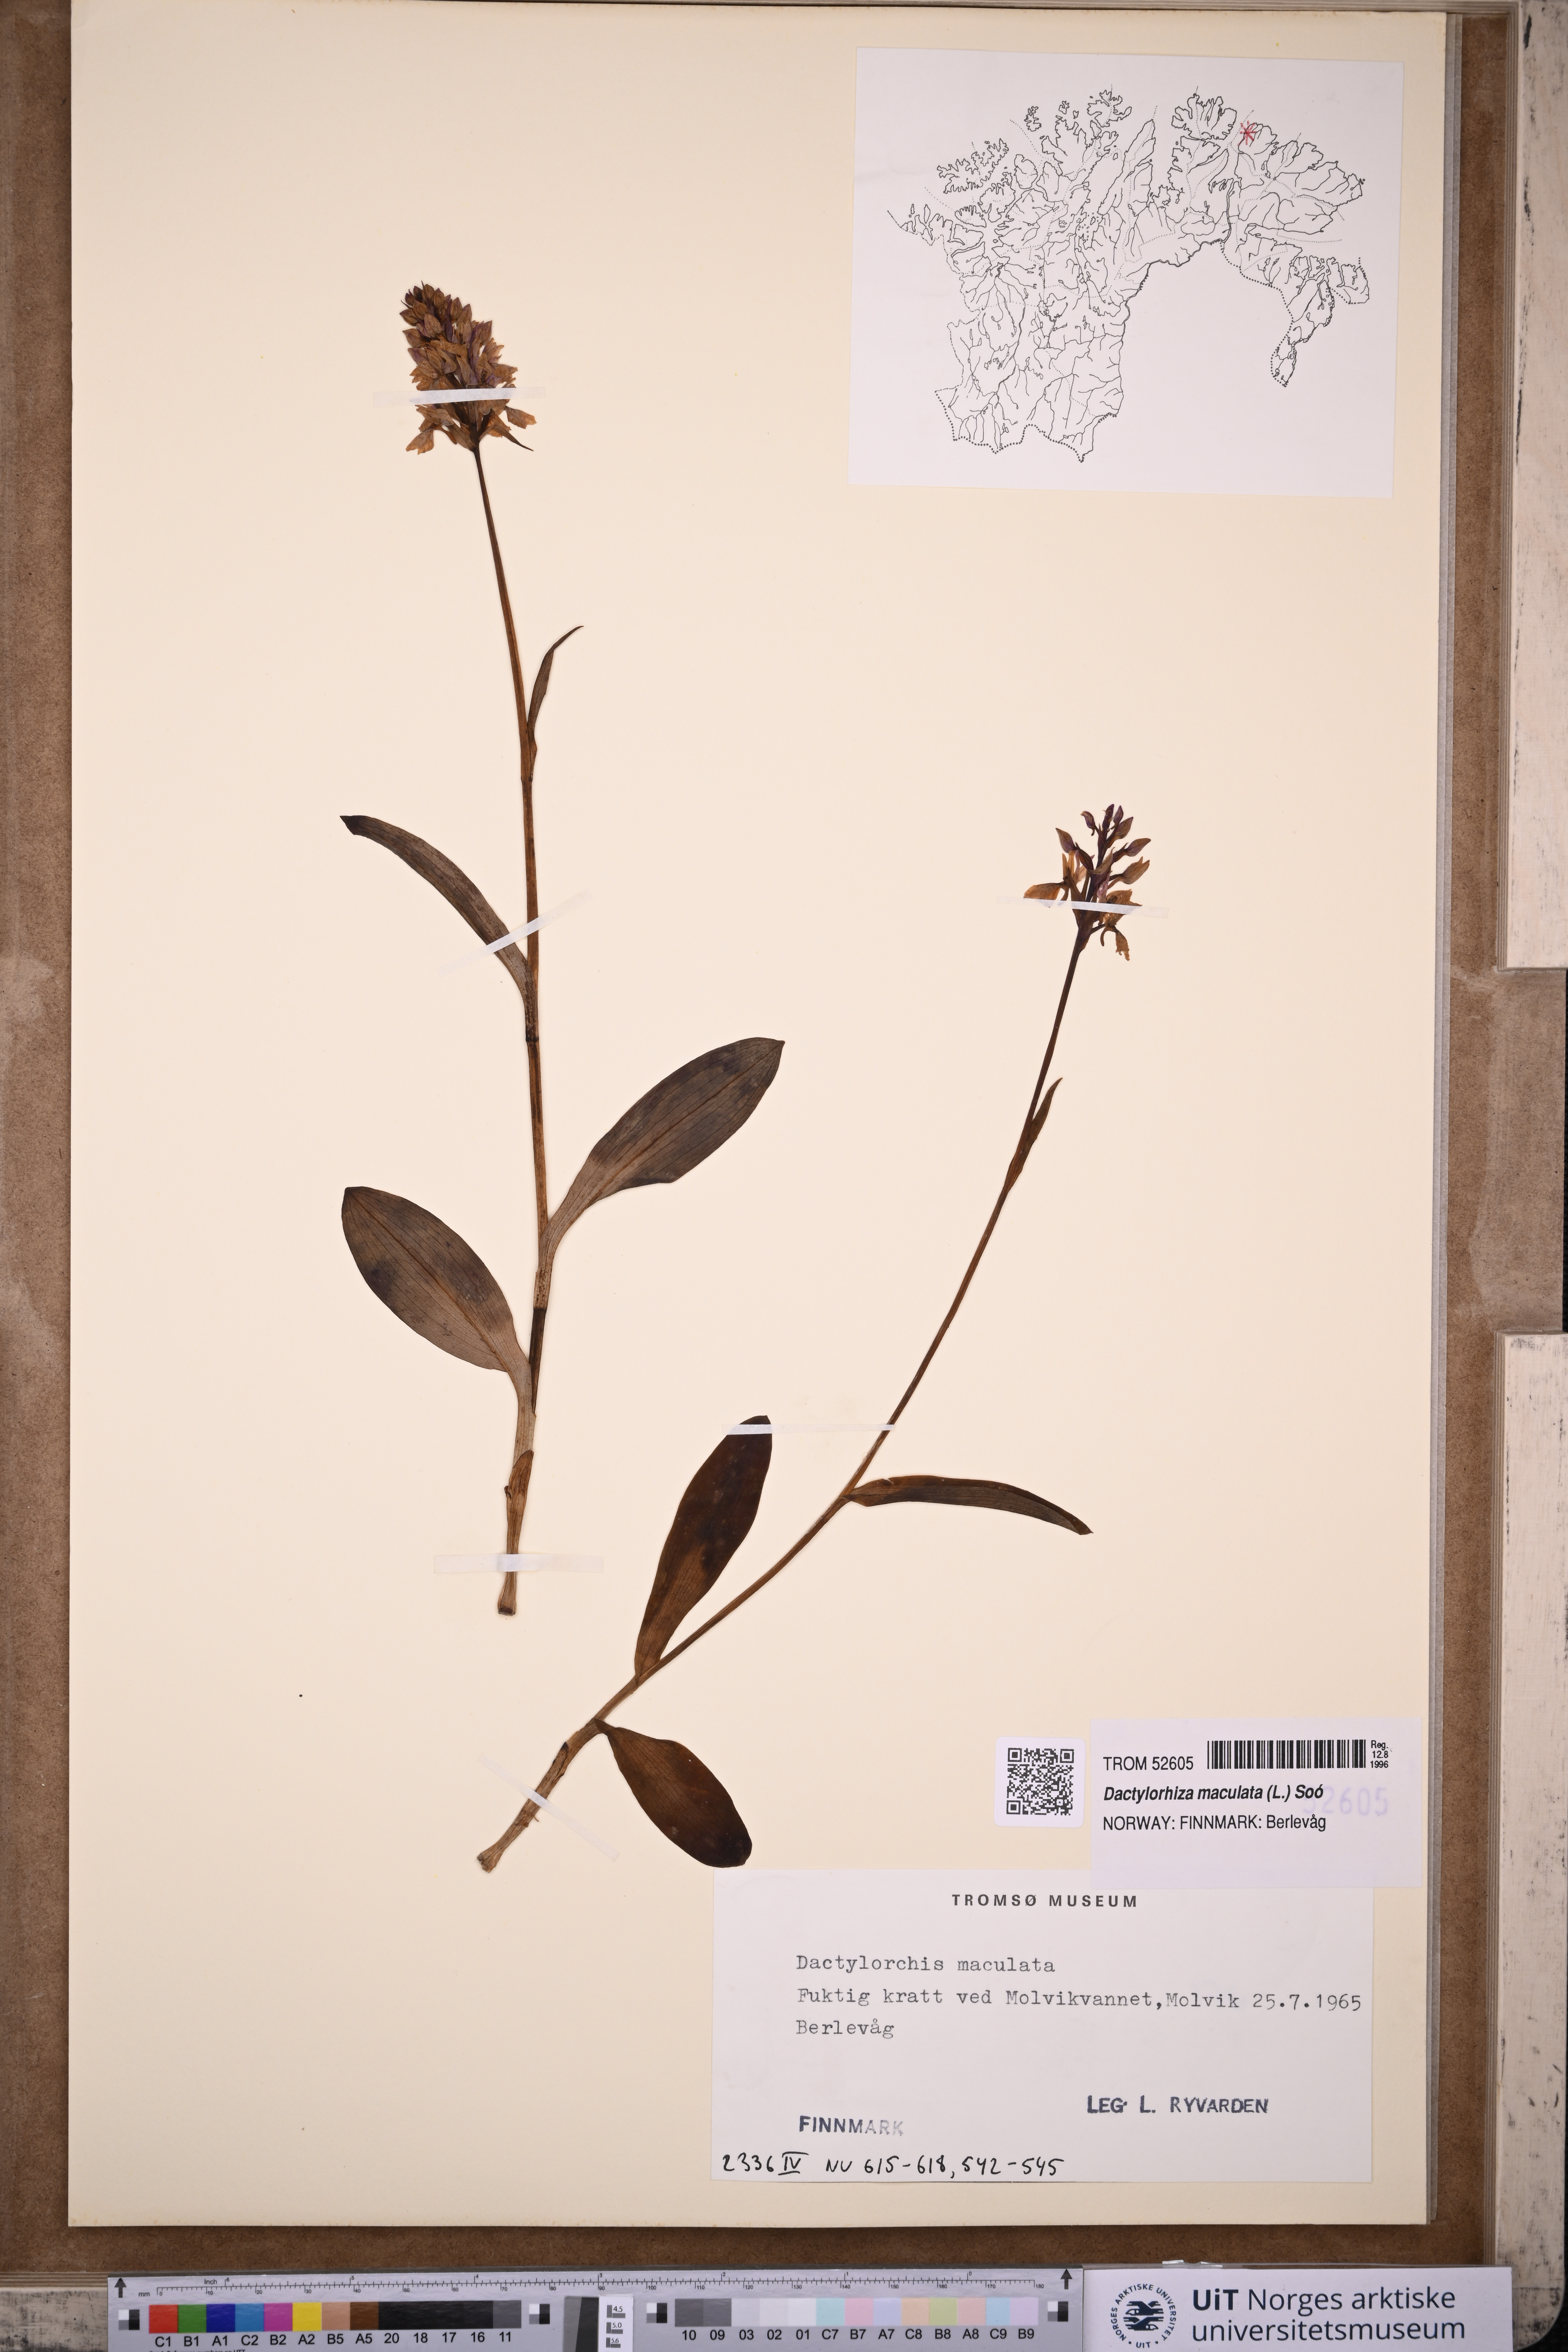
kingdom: Plantae
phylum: Tracheophyta
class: Liliopsida
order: Asparagales
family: Orchidaceae
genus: Dactylorhiza
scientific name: Dactylorhiza maculata
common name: Heath spotted-orchid
